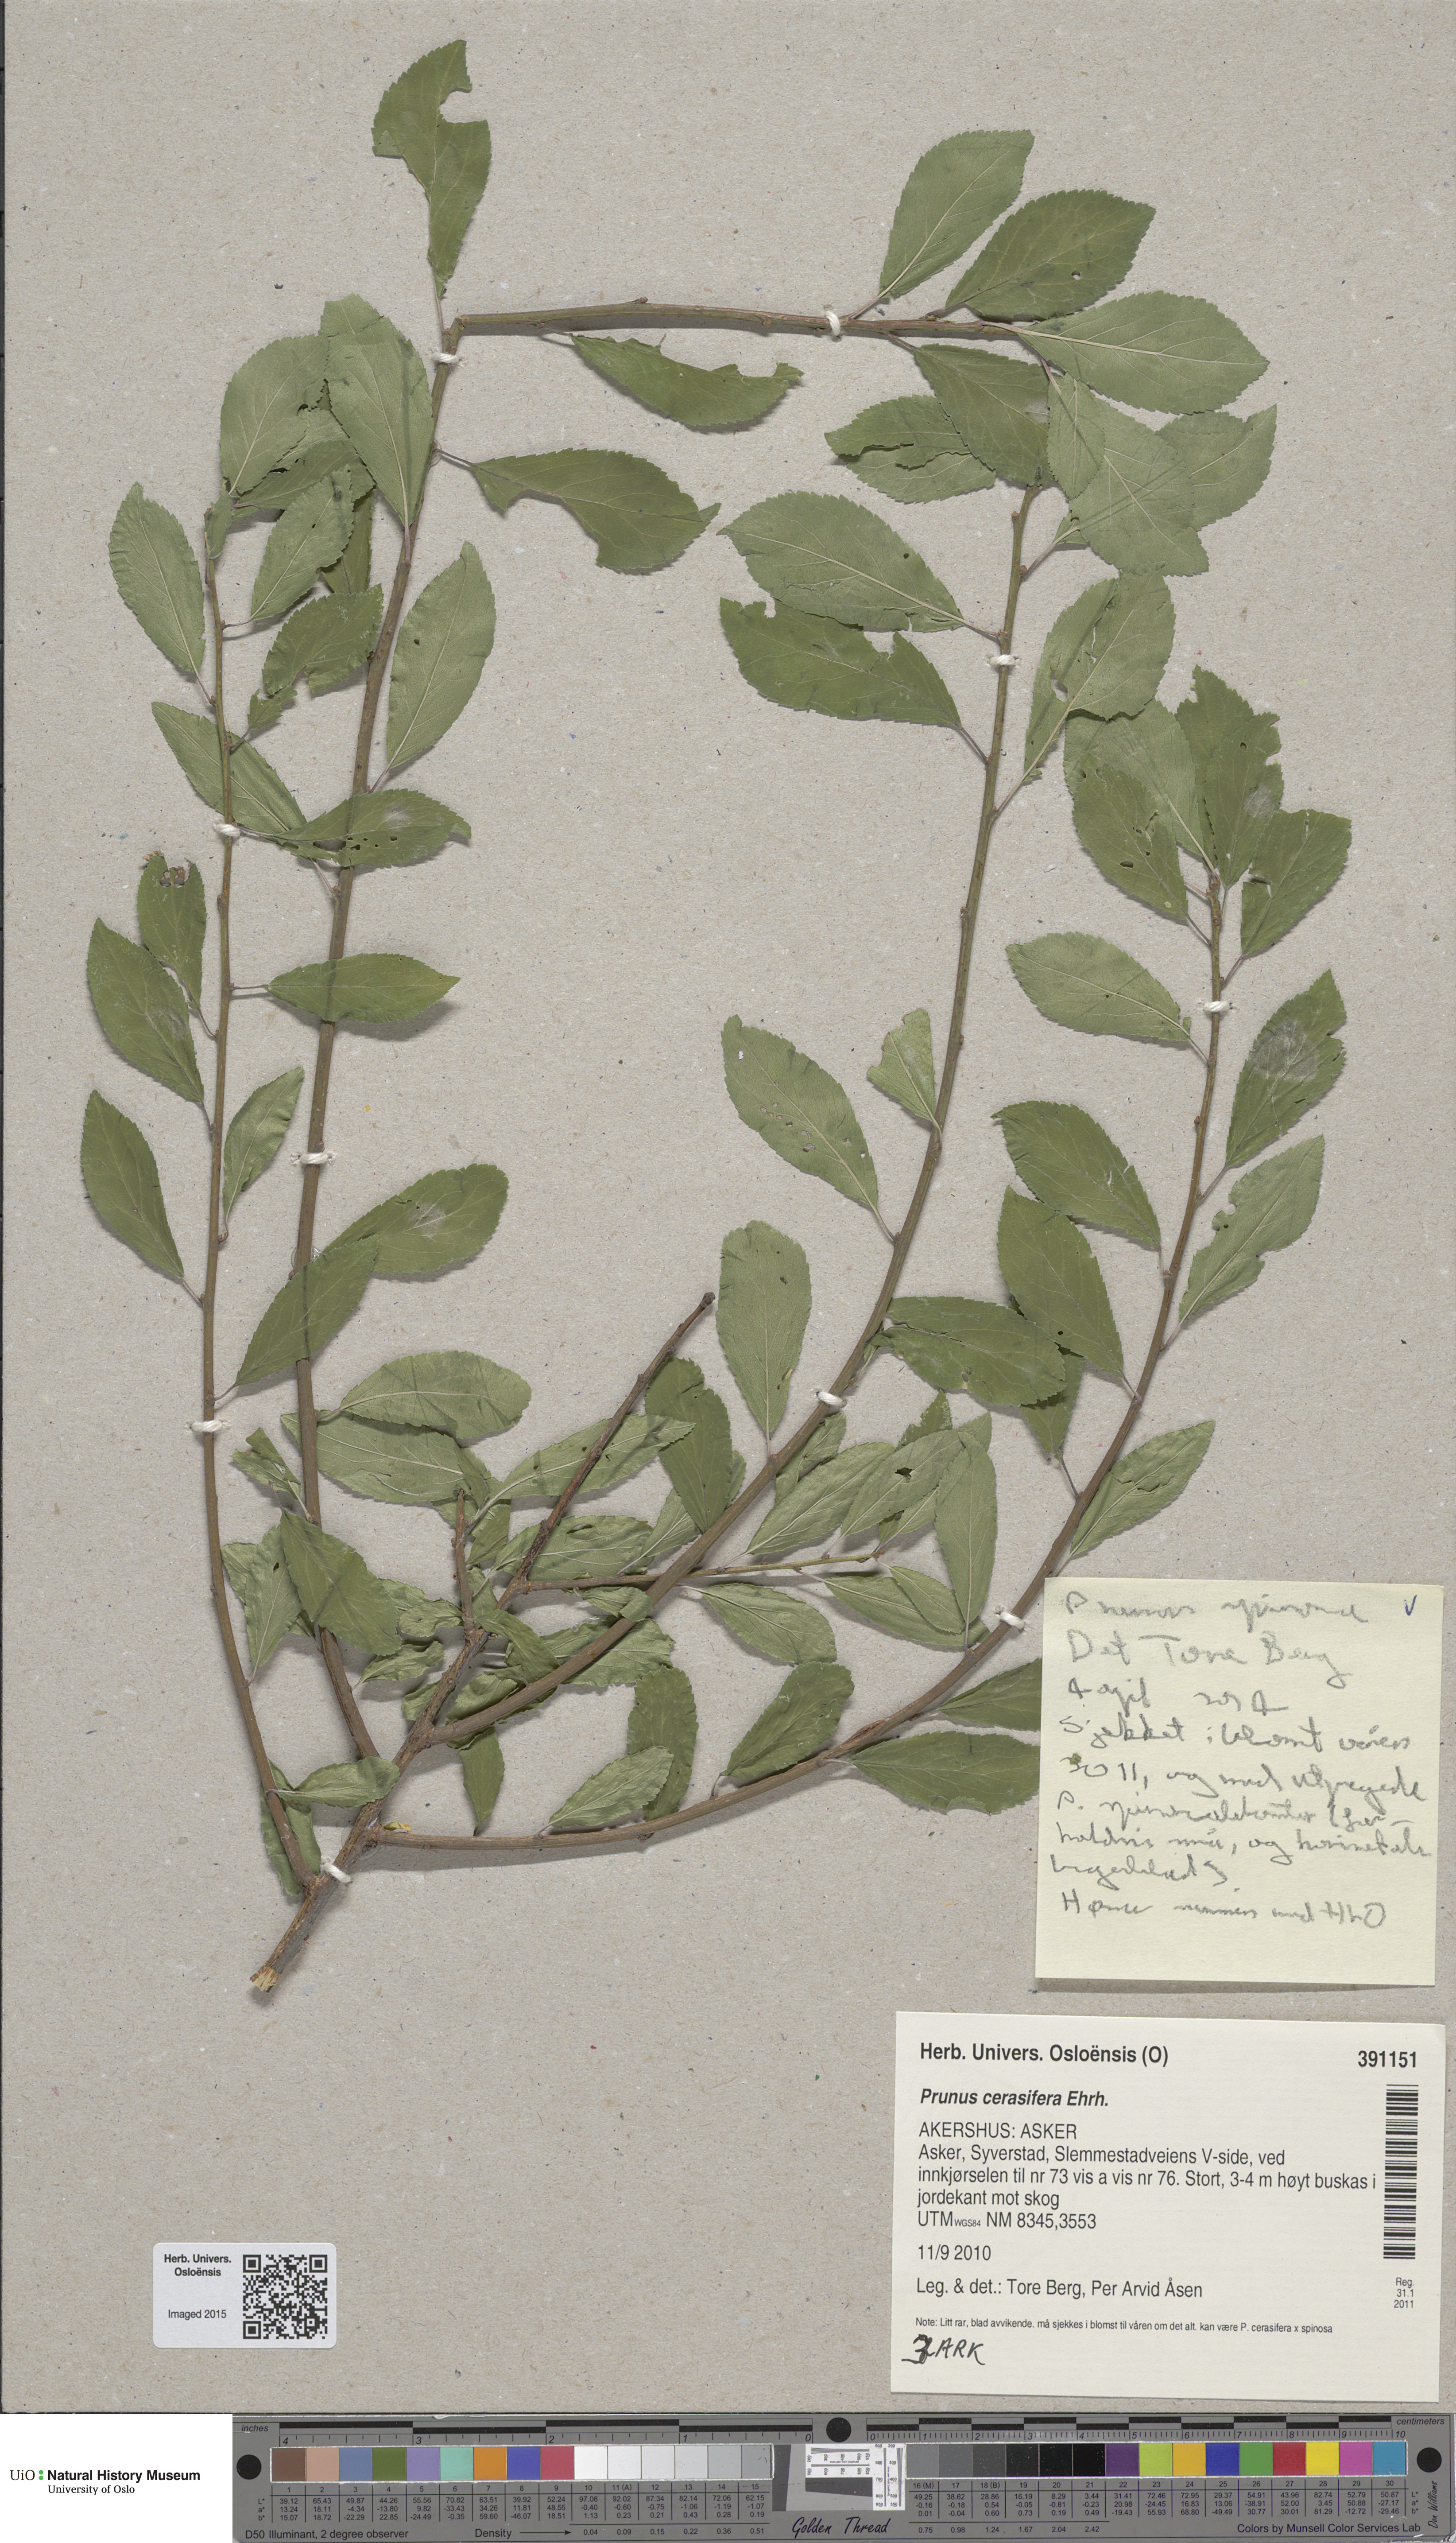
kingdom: Plantae
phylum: Tracheophyta
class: Magnoliopsida
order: Rosales
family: Rosaceae
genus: Prunus
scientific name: Prunus spinosa
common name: Blackthorn
